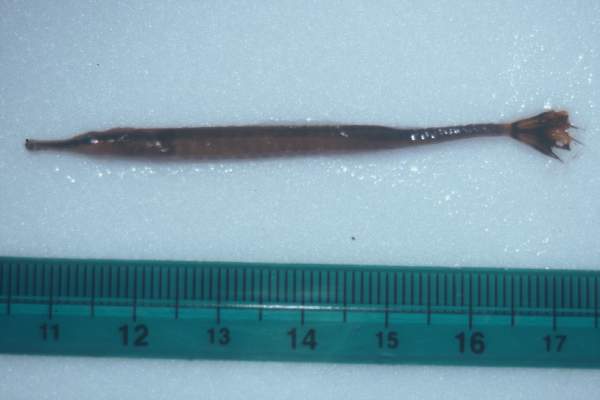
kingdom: Animalia
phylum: Chordata
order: Syngnathiformes
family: Syngnathidae
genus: Doryrhamphus
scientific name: Doryrhamphus excisus
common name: Bluestripe pipefish
